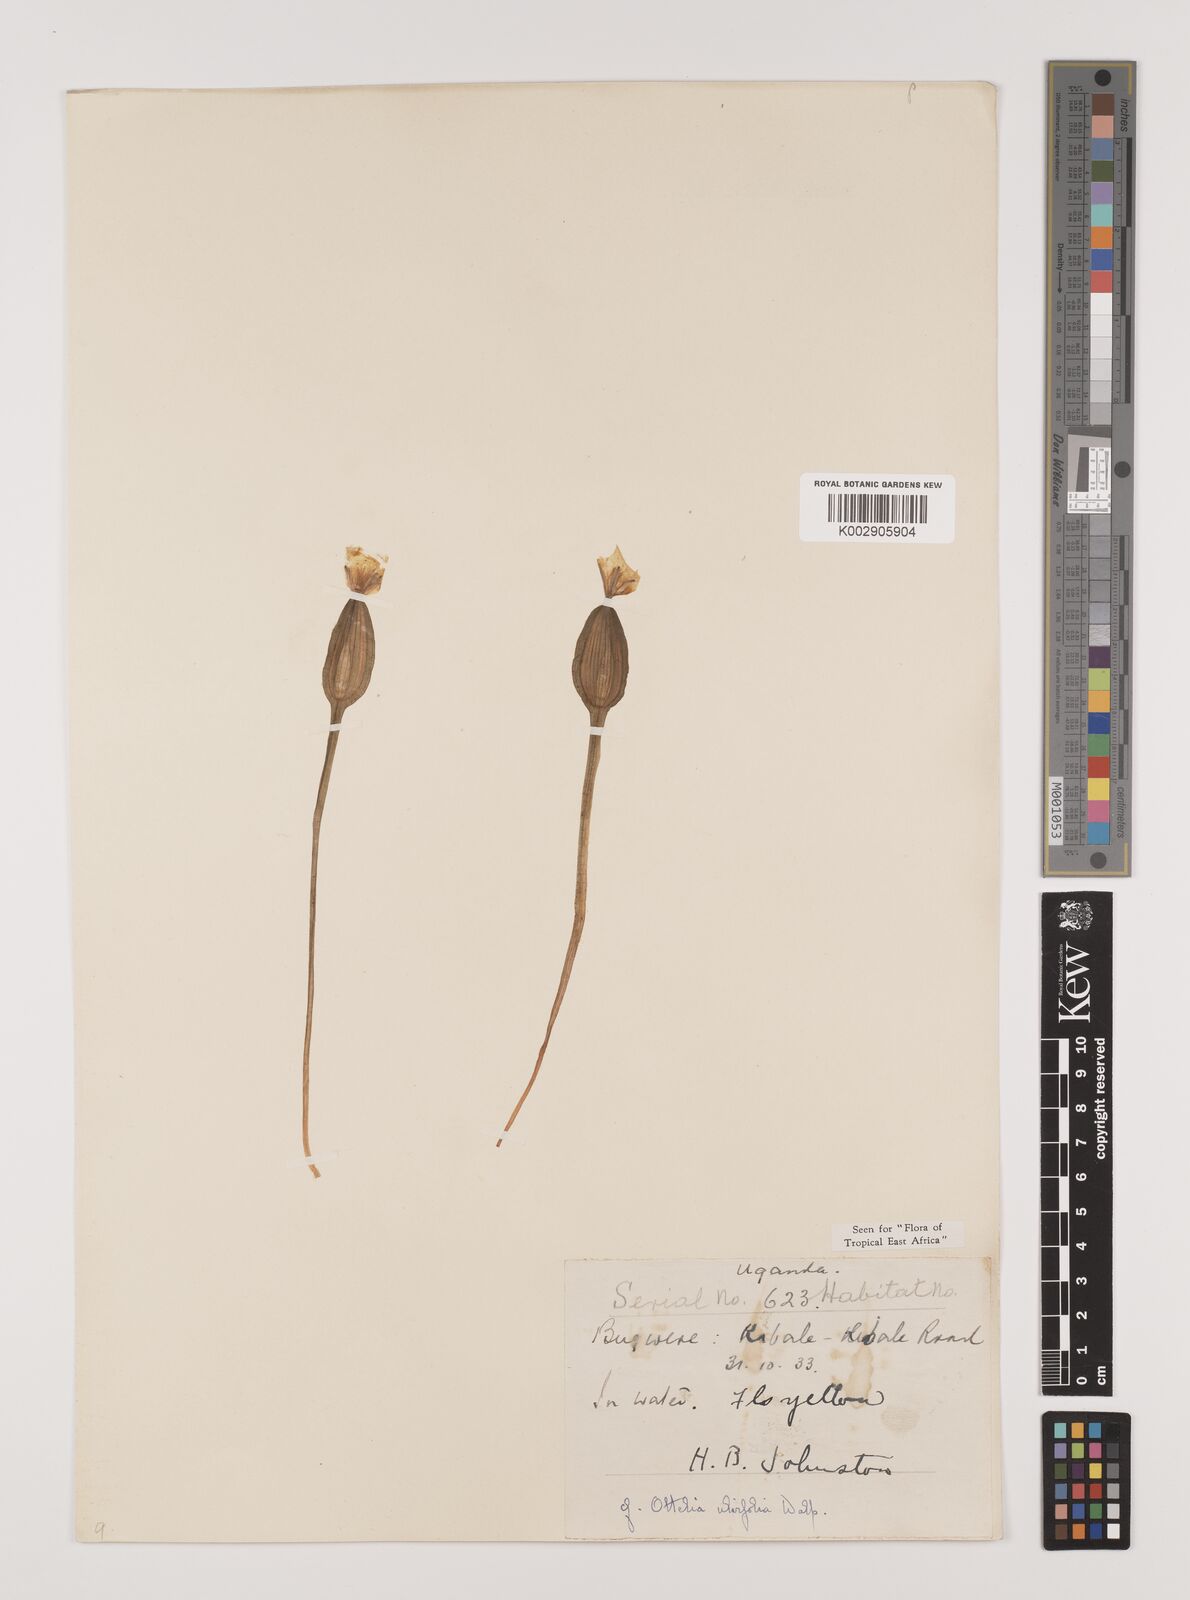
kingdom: Plantae
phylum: Tracheophyta
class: Liliopsida
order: Alismatales
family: Hydrocharitaceae
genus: Ottelia
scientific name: Ottelia ulvifolia
